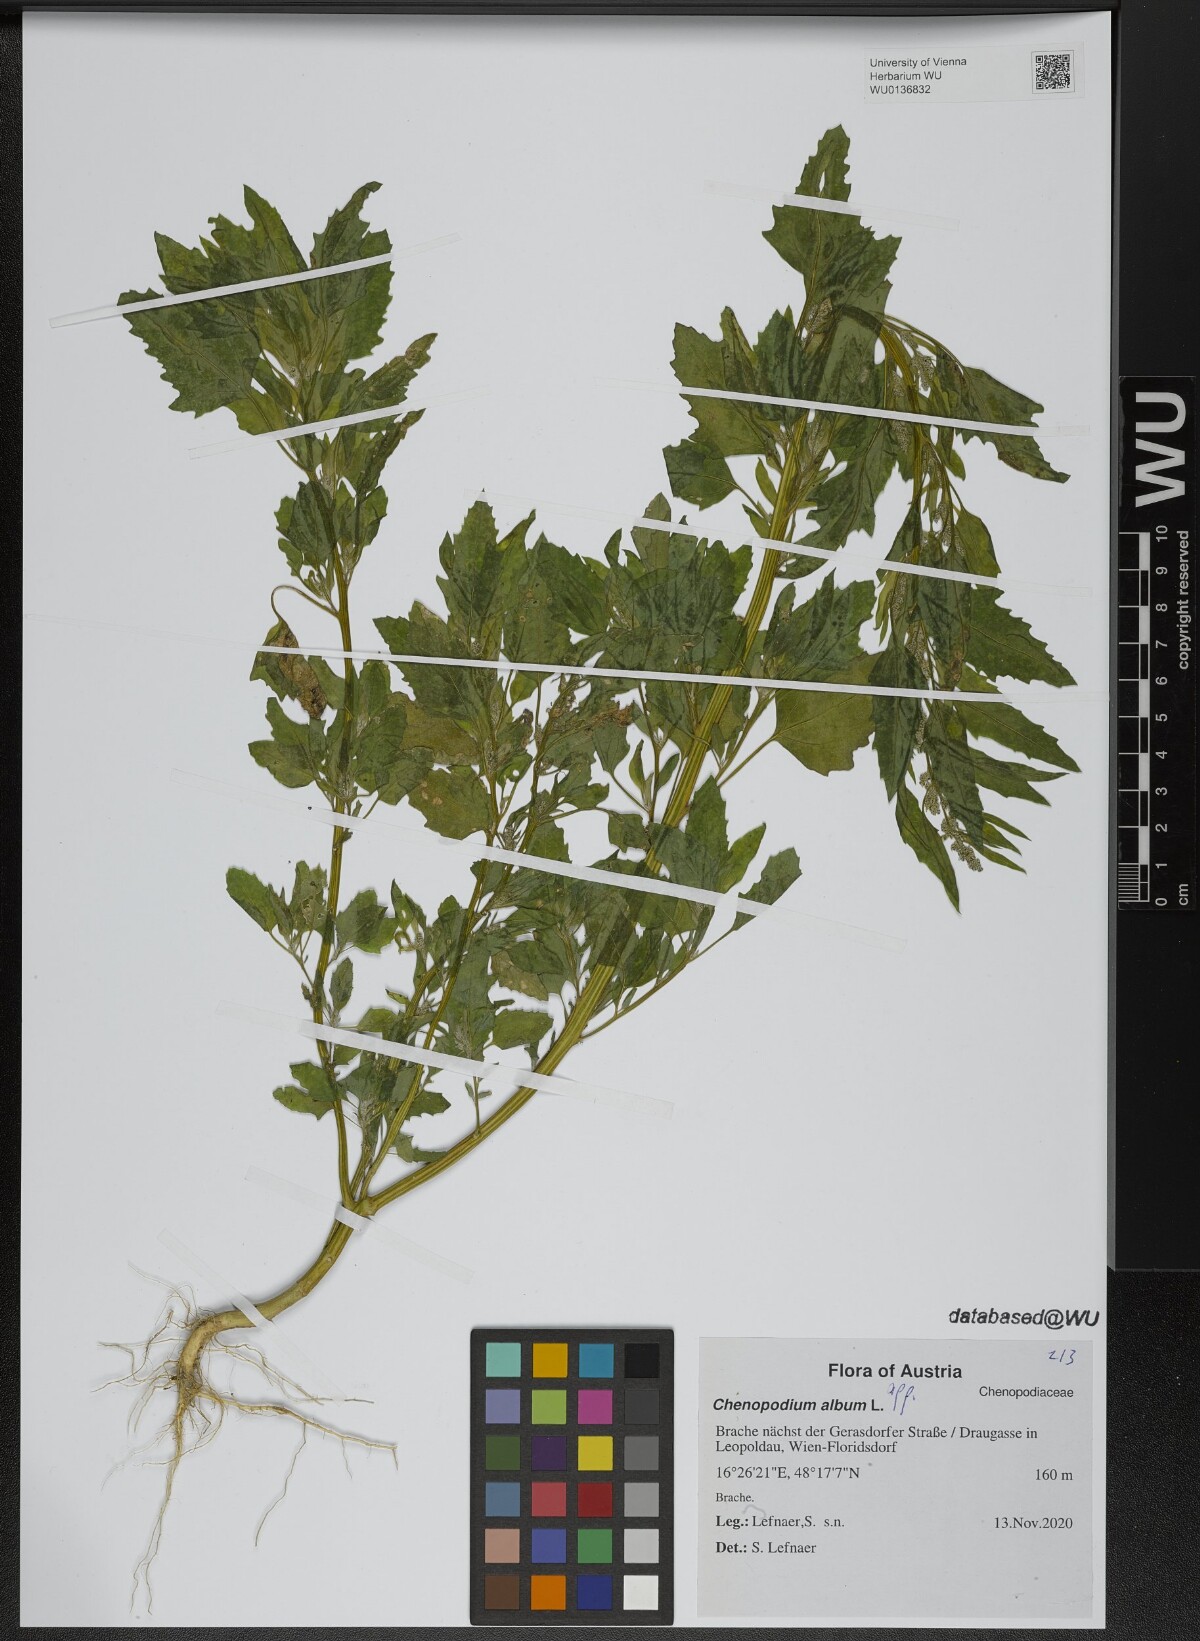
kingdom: Plantae
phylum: Tracheophyta
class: Magnoliopsida
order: Caryophyllales
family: Amaranthaceae
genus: Chenopodium
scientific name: Chenopodium album
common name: Fat-hen
